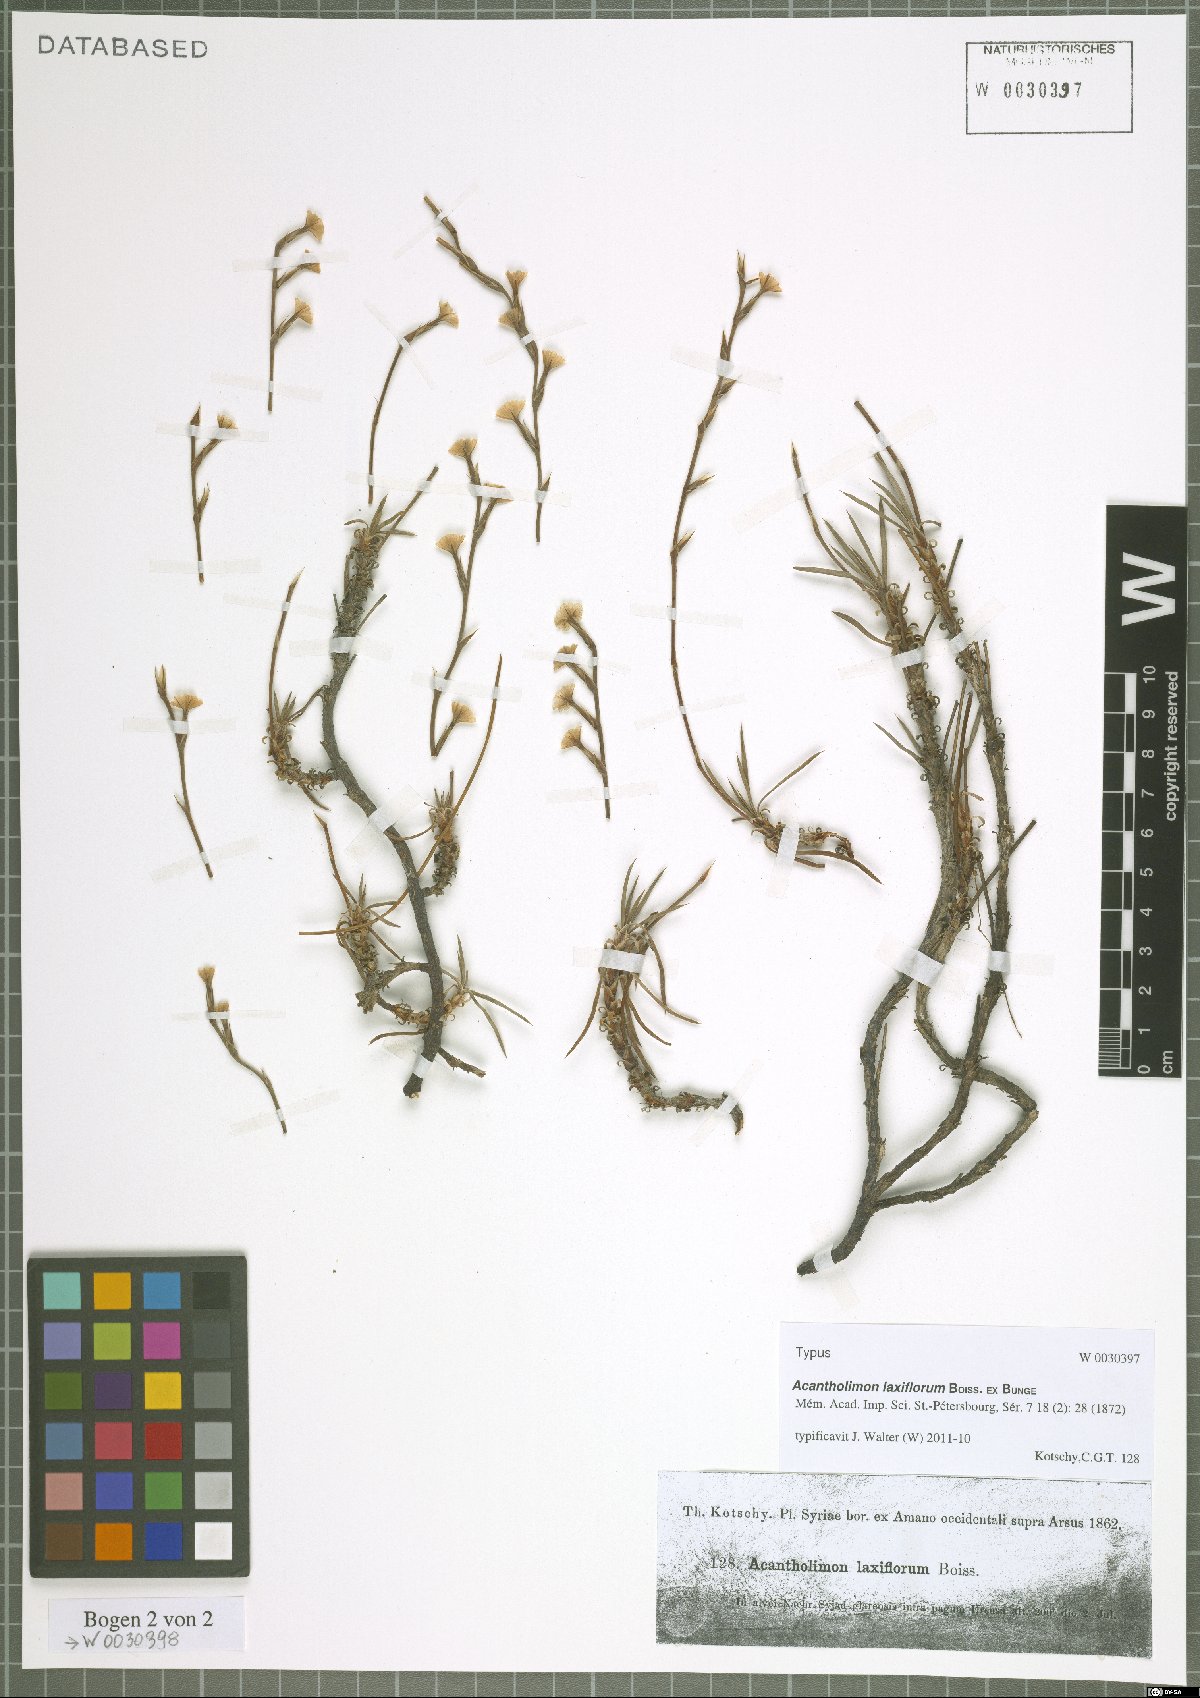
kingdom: Plantae
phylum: Tracheophyta
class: Magnoliopsida
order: Caryophyllales
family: Plumbaginaceae
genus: Acantholimon
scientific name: Acantholimon laxiflorum
